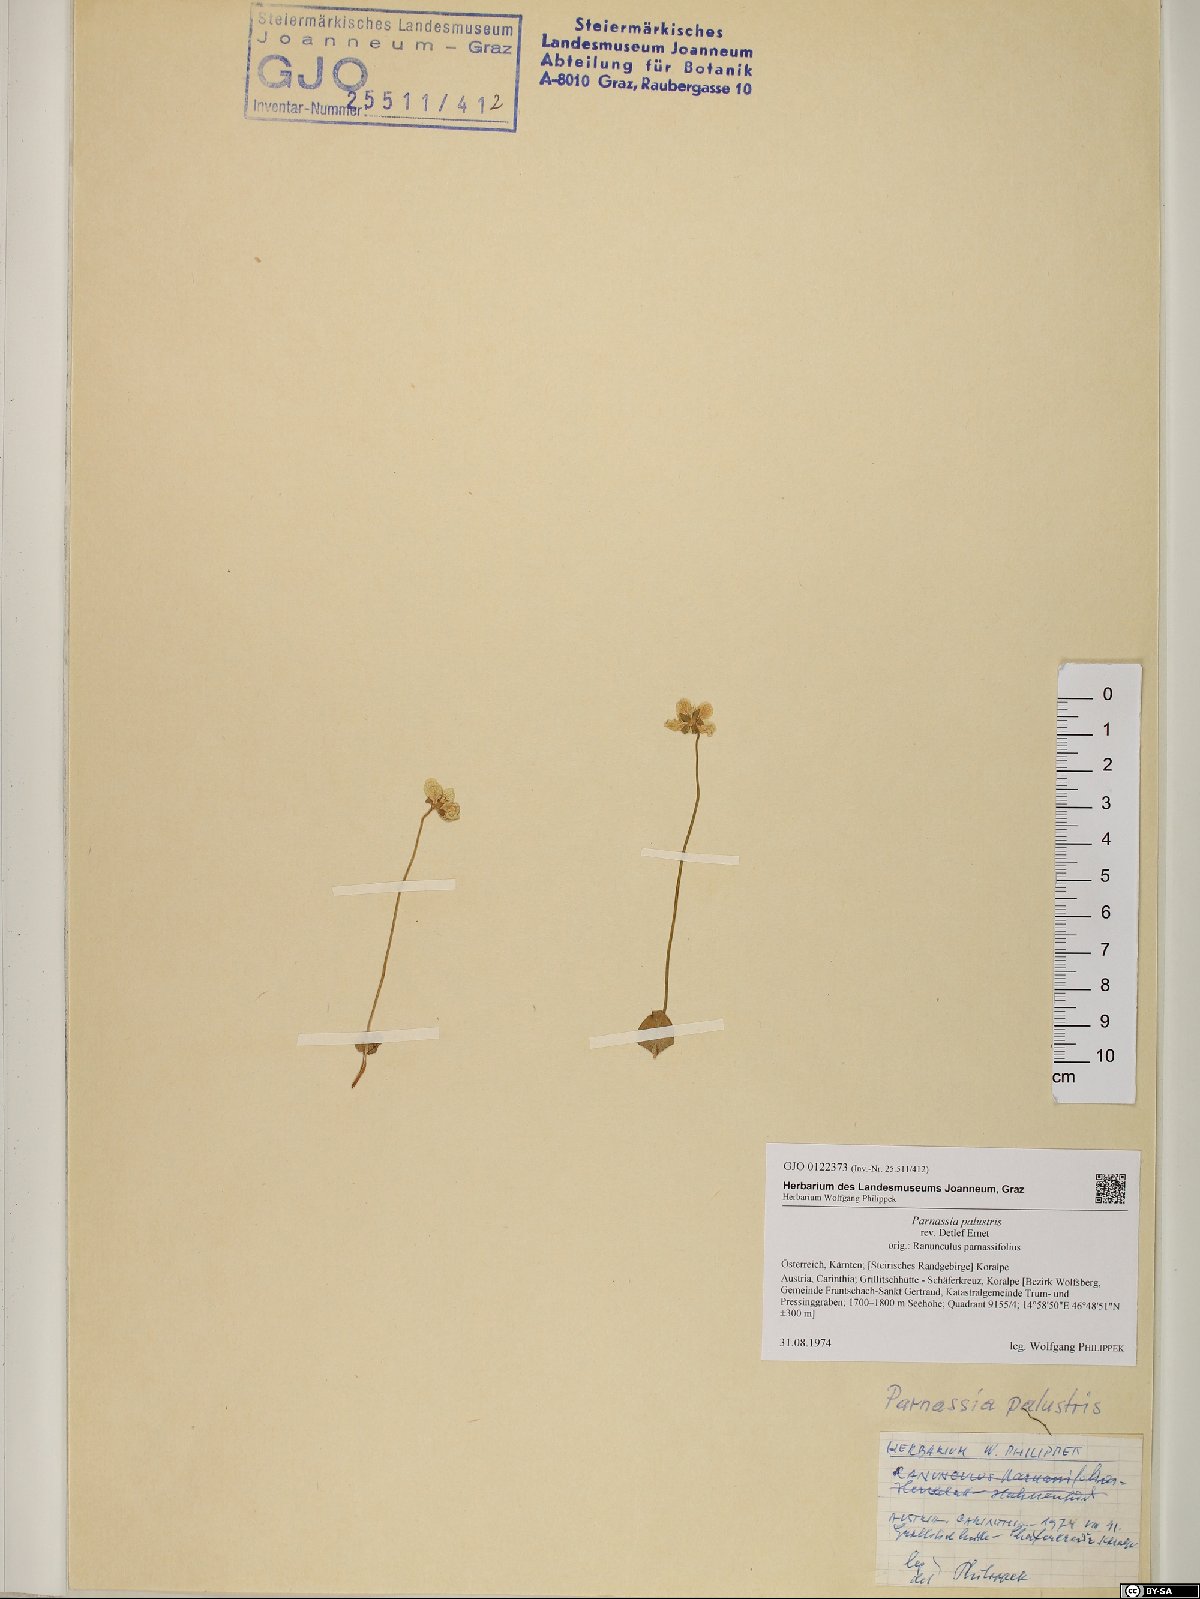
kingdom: Plantae
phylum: Tracheophyta
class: Magnoliopsida
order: Celastrales
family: Parnassiaceae
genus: Parnassia
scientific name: Parnassia palustris
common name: Grass-of-parnassus
